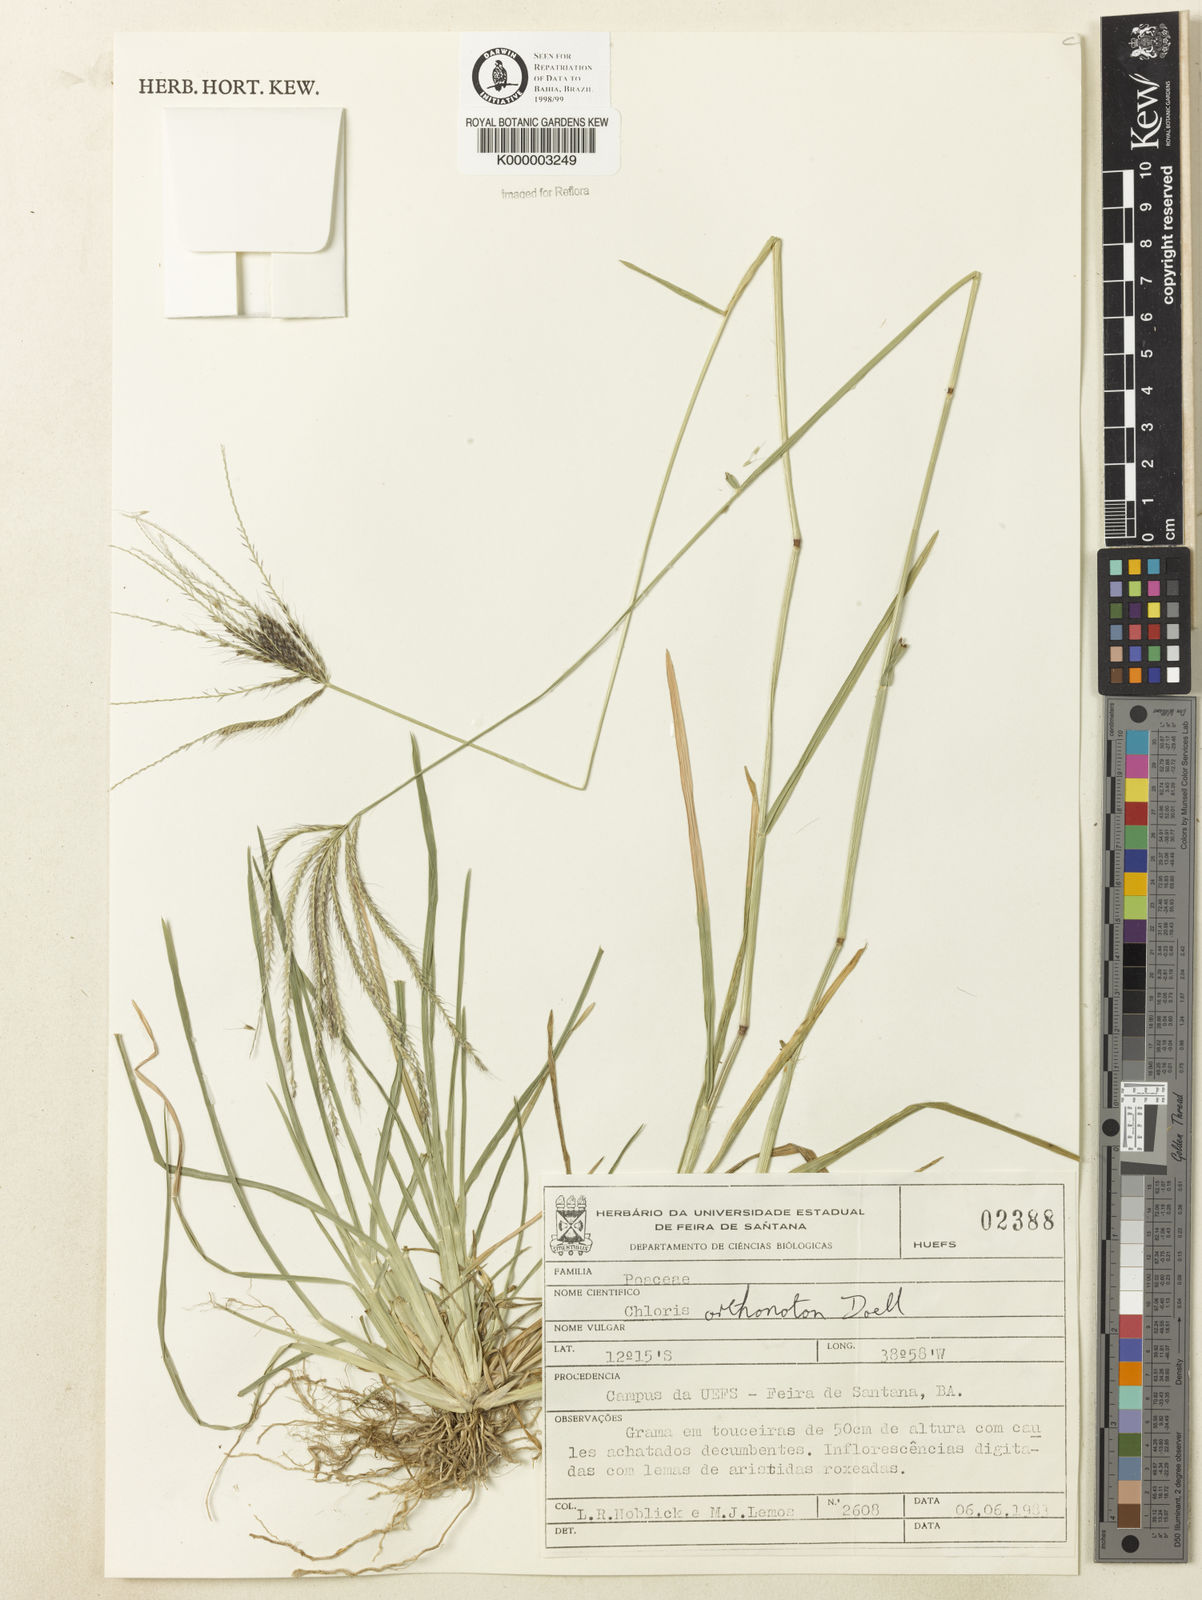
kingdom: Plantae
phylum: Tracheophyta
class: Liliopsida
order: Poales
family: Poaceae
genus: Chloris
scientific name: Chloris
